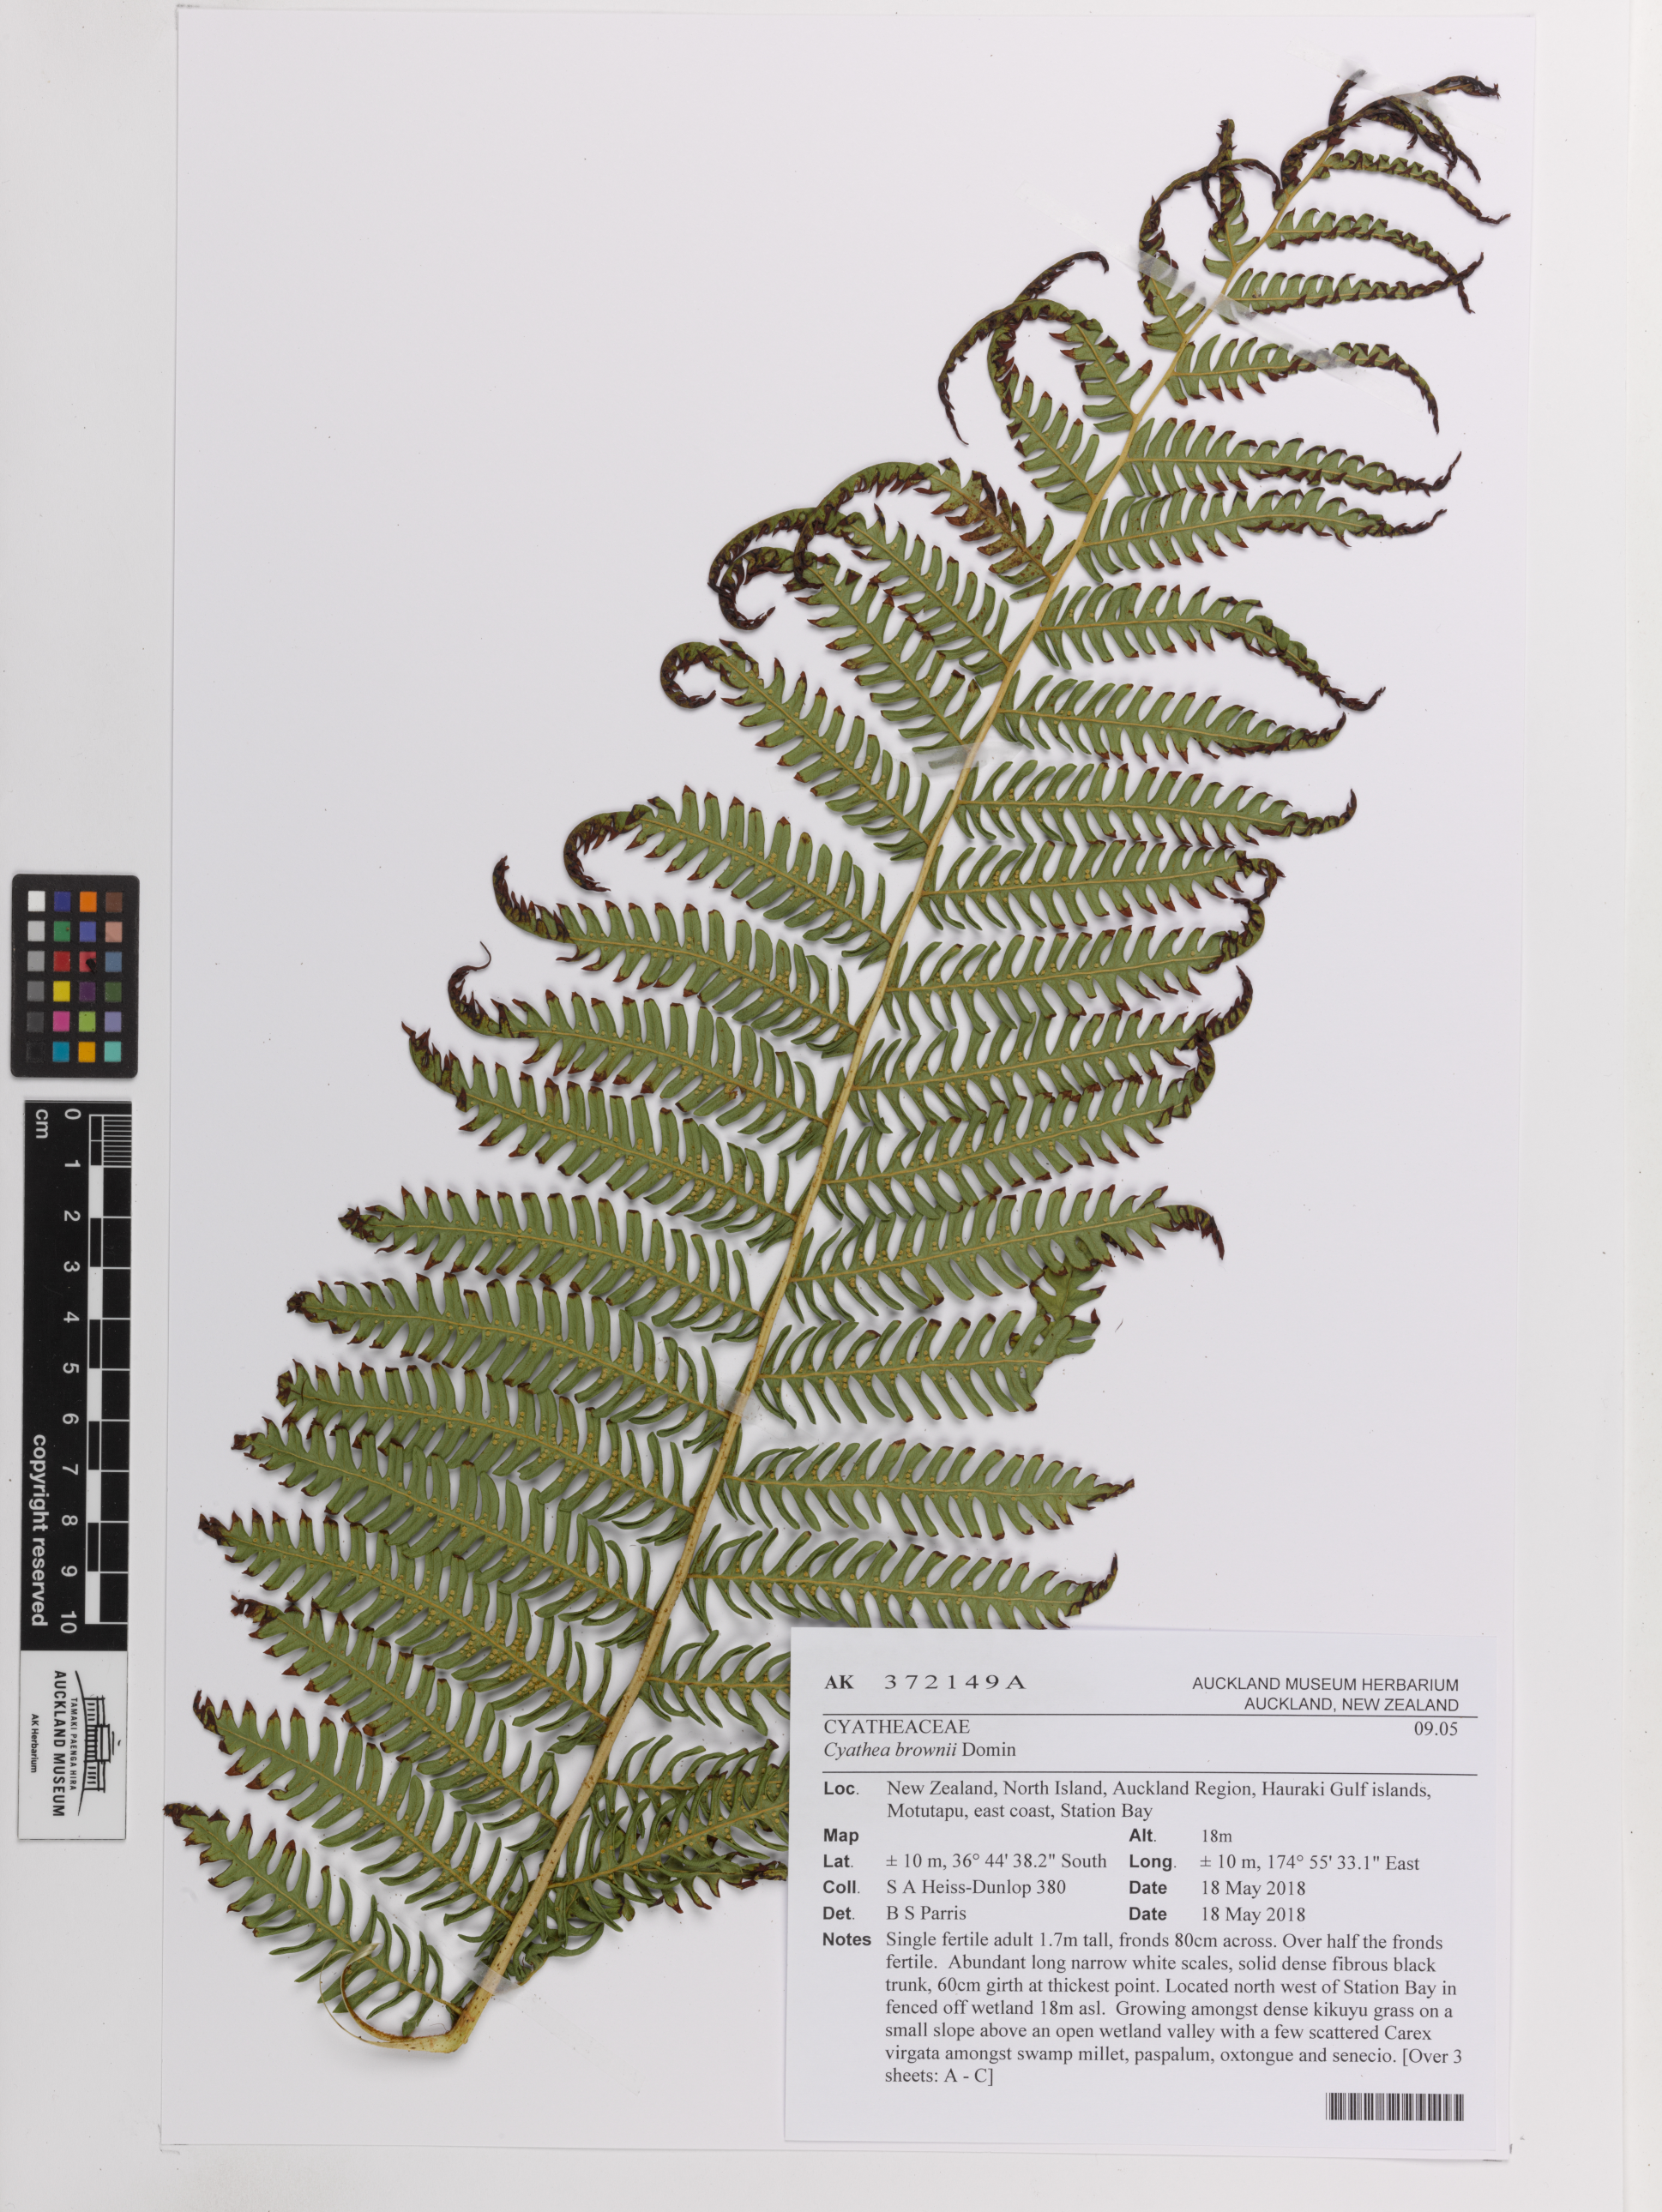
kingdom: Plantae
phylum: Tracheophyta
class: Polypodiopsida
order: Cyatheales
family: Cyatheaceae
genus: Sphaeropteris
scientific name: Sphaeropteris excelsa
